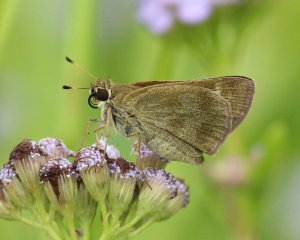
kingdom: Animalia
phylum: Arthropoda
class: Insecta
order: Lepidoptera
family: Hesperiidae
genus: Polites
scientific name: Polites vibex
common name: Whirlabout
